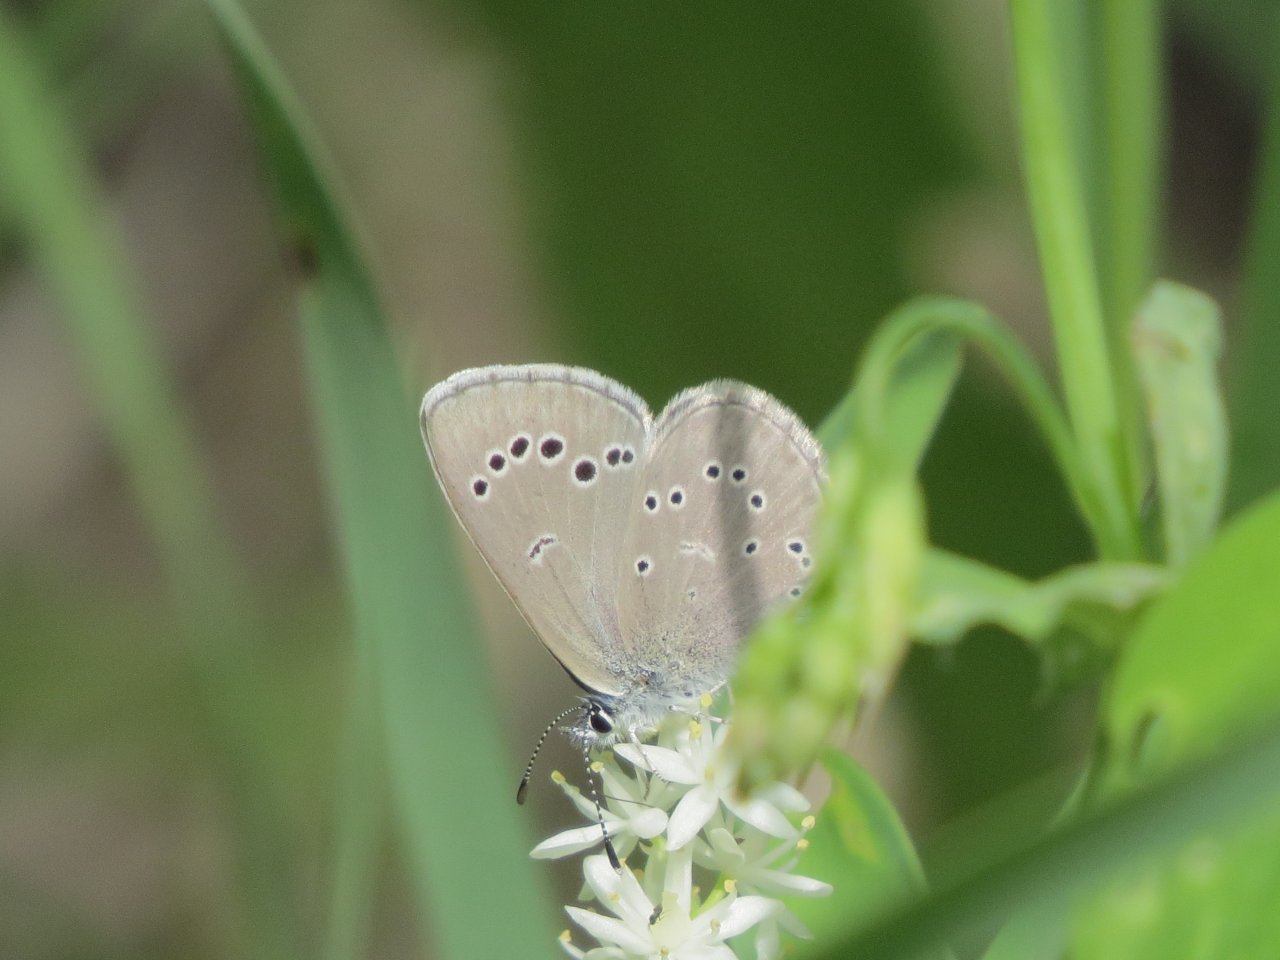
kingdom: Animalia
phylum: Arthropoda
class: Insecta
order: Lepidoptera
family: Lycaenidae
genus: Glaucopsyche
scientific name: Glaucopsyche lygdamus
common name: Silvery Blue
